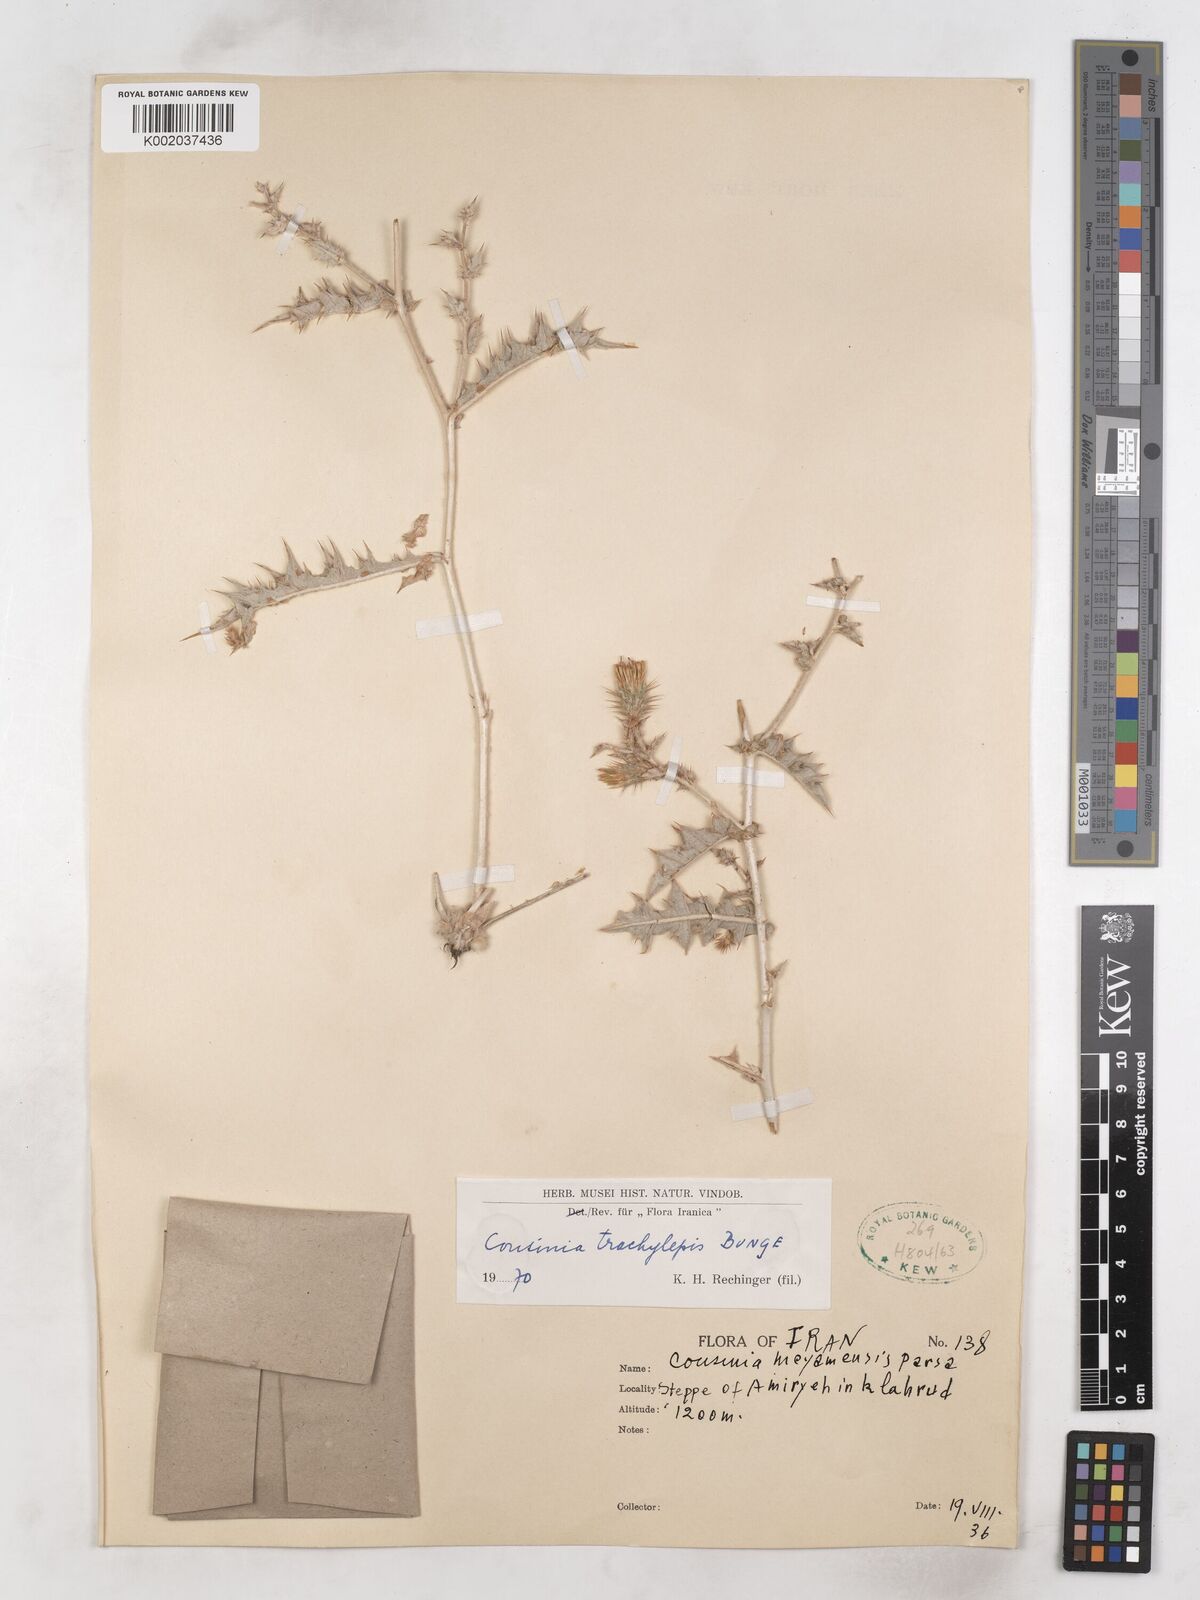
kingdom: Plantae
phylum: Tracheophyta
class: Magnoliopsida
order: Asterales
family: Asteraceae
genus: Cousinia
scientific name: Cousinia trachylepis
